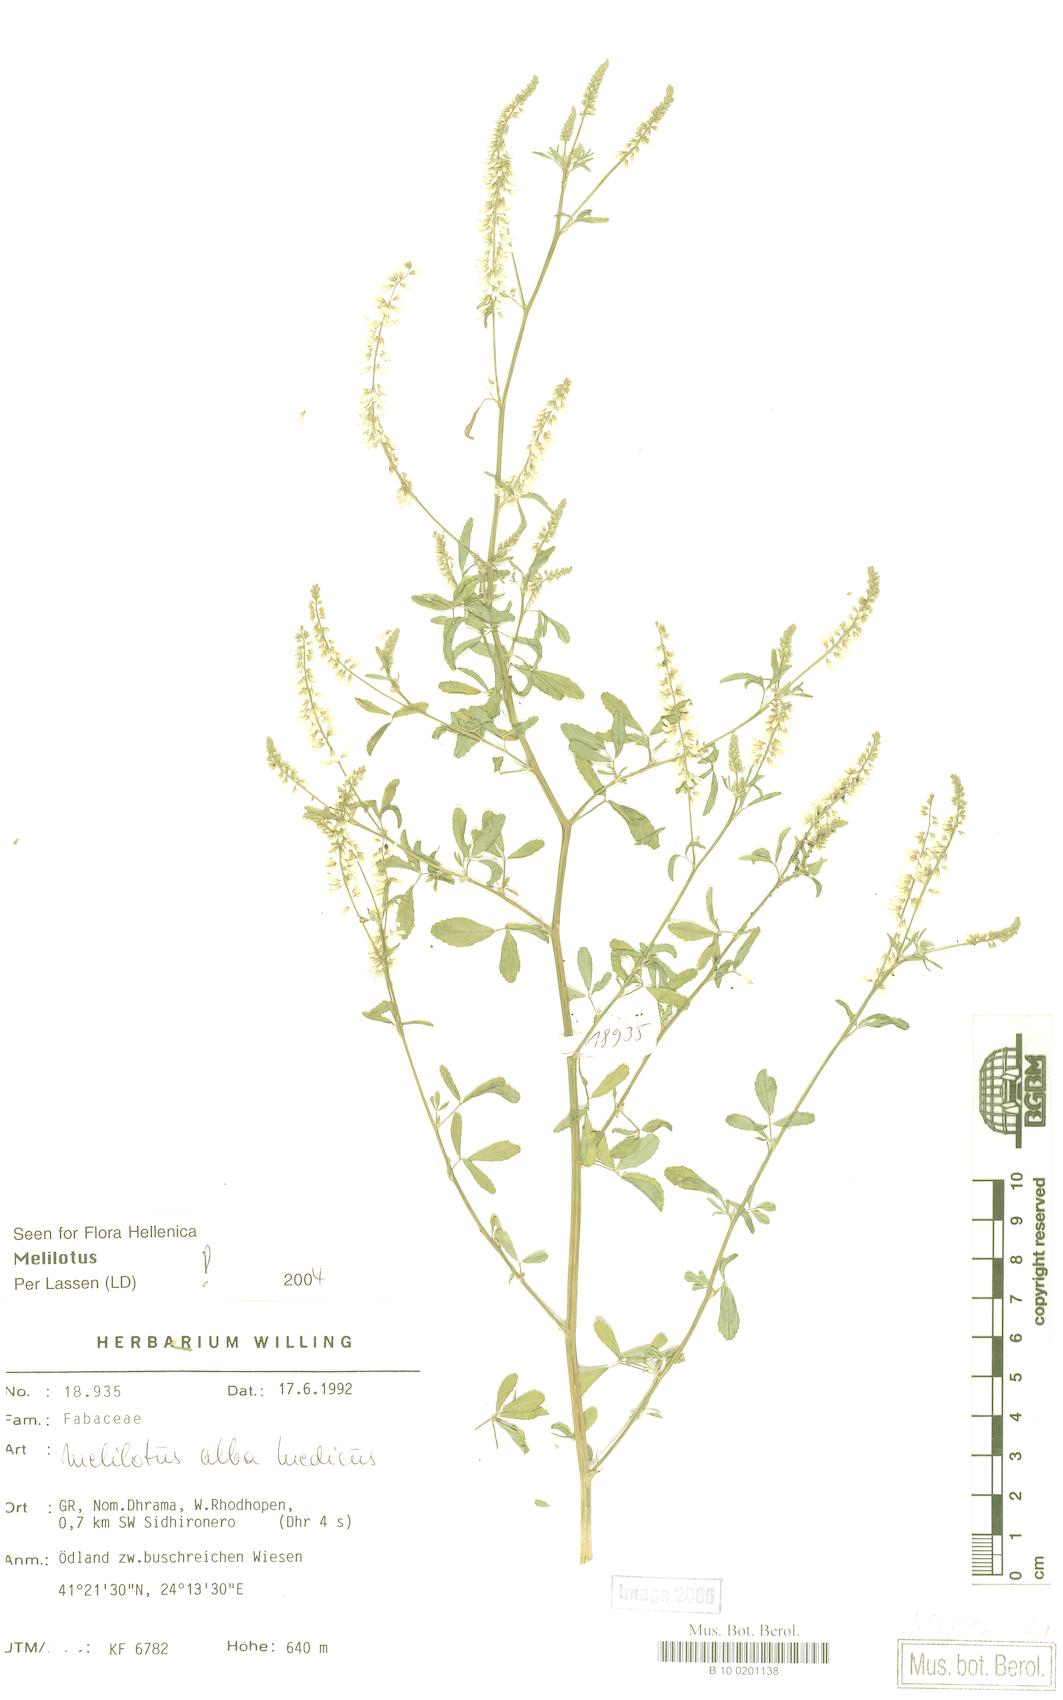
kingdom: Plantae
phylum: Tracheophyta
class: Magnoliopsida
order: Fabales
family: Fabaceae
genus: Melilotus
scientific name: Melilotus albus
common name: White melilot
